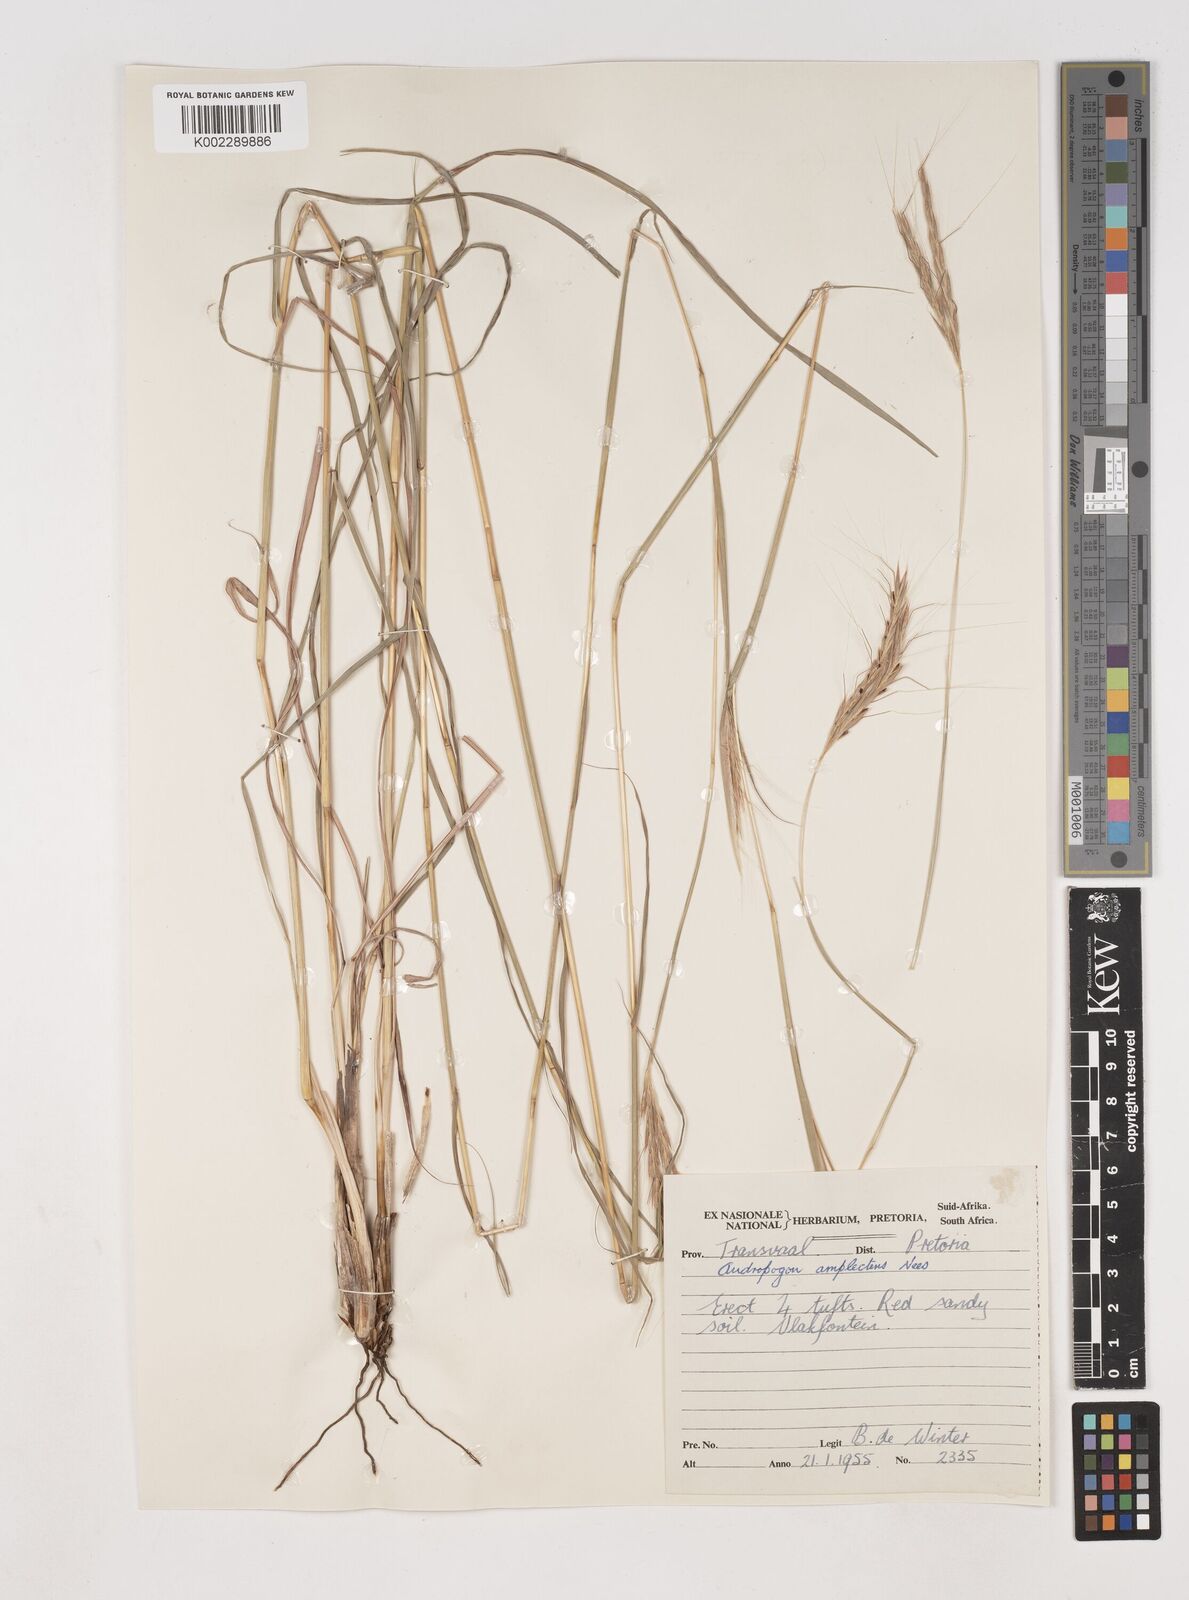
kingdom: Plantae
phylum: Tracheophyta
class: Liliopsida
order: Poales
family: Poaceae
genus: Diheteropogon
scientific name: Diheteropogon amplectens
